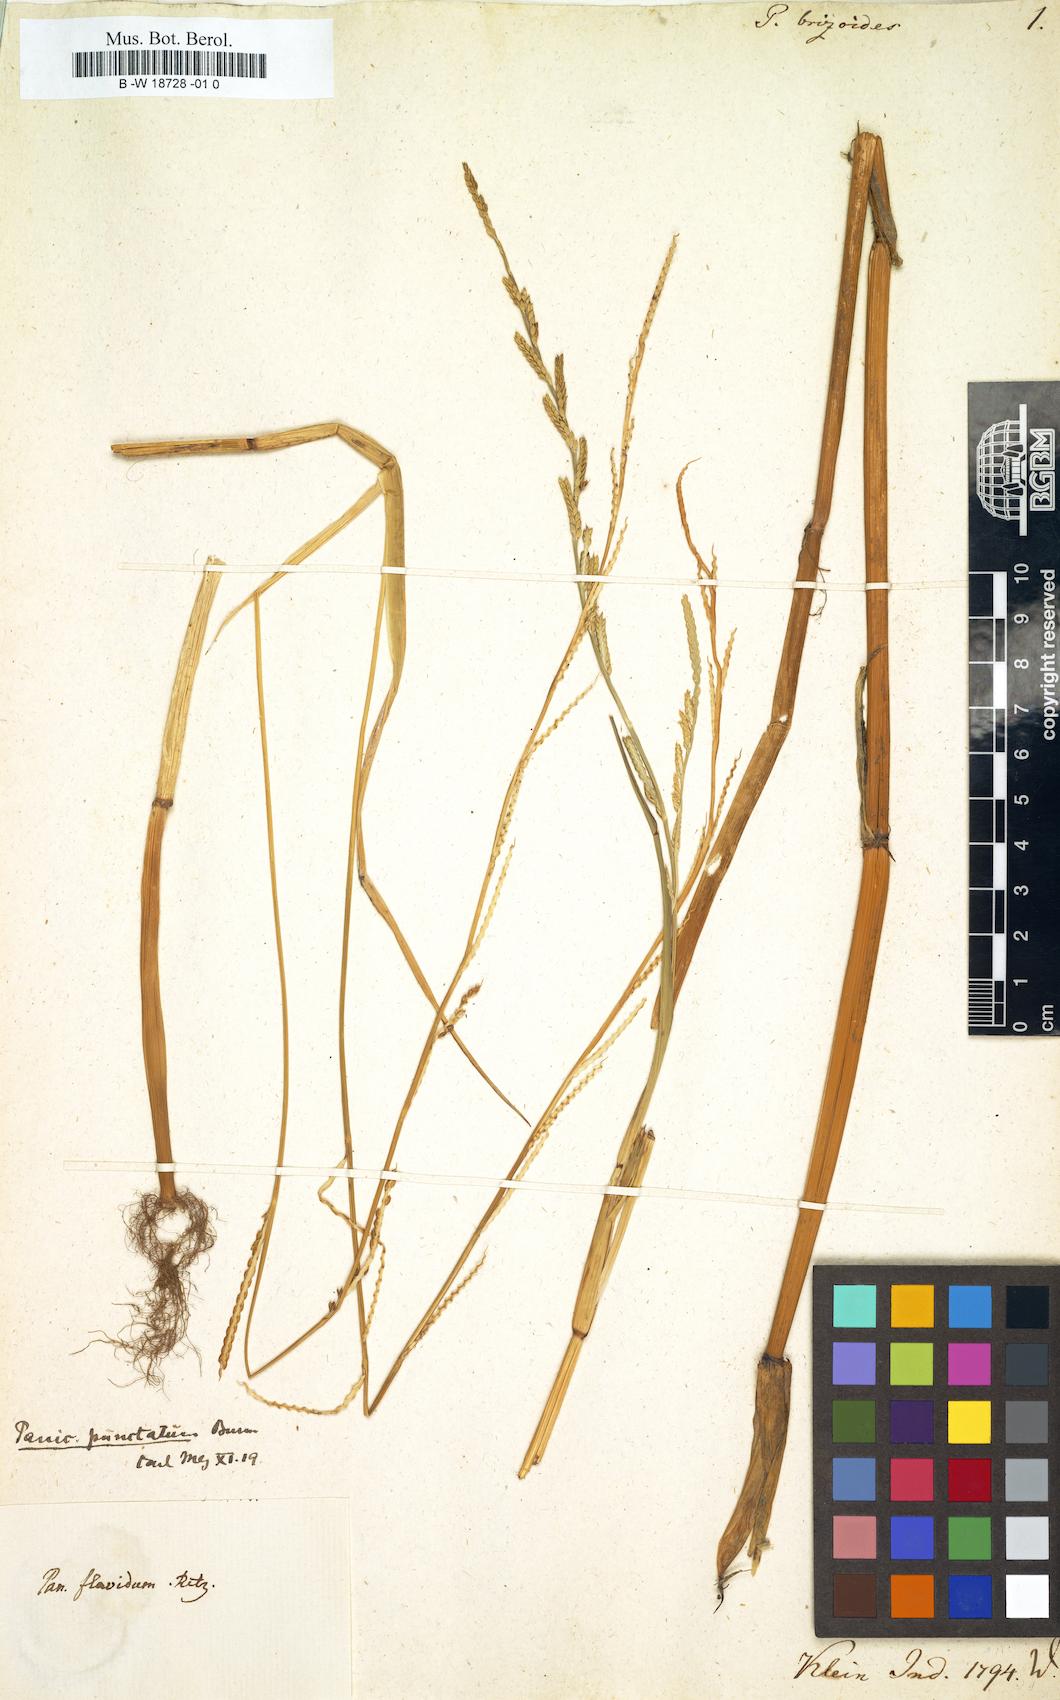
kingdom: Plantae
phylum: Tracheophyta
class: Liliopsida
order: Poales
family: Poaceae
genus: Setaria
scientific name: Setaria flavida
